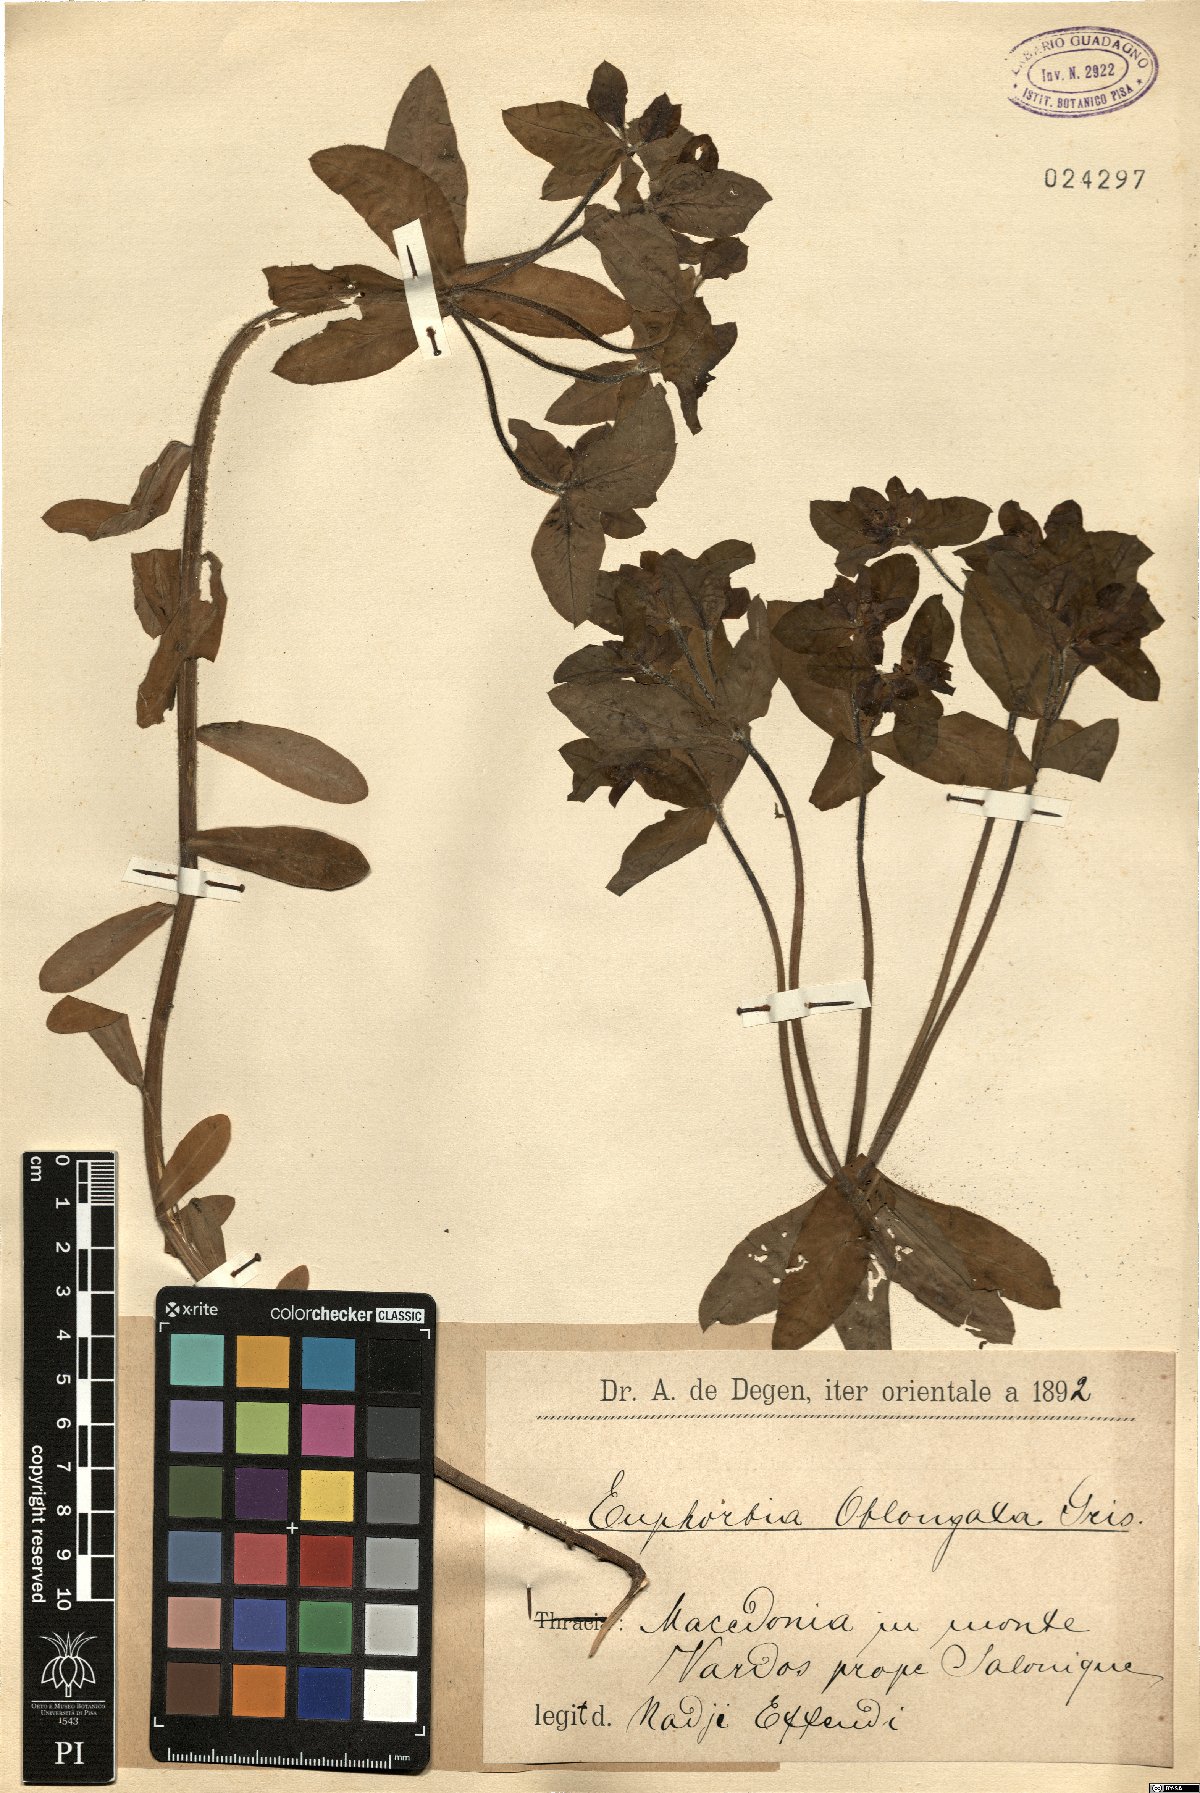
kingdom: Plantae
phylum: Tracheophyta
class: Magnoliopsida
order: Malpighiales
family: Euphorbiaceae
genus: Euphorbia
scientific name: Euphorbia oblongata
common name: Balkan spurge
